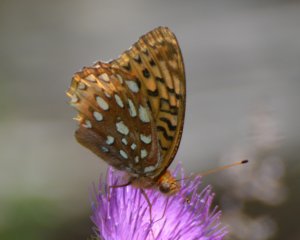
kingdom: Animalia
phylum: Arthropoda
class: Insecta
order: Lepidoptera
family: Nymphalidae
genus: Speyeria
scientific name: Speyeria cybele
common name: Great Spangled Fritillary
